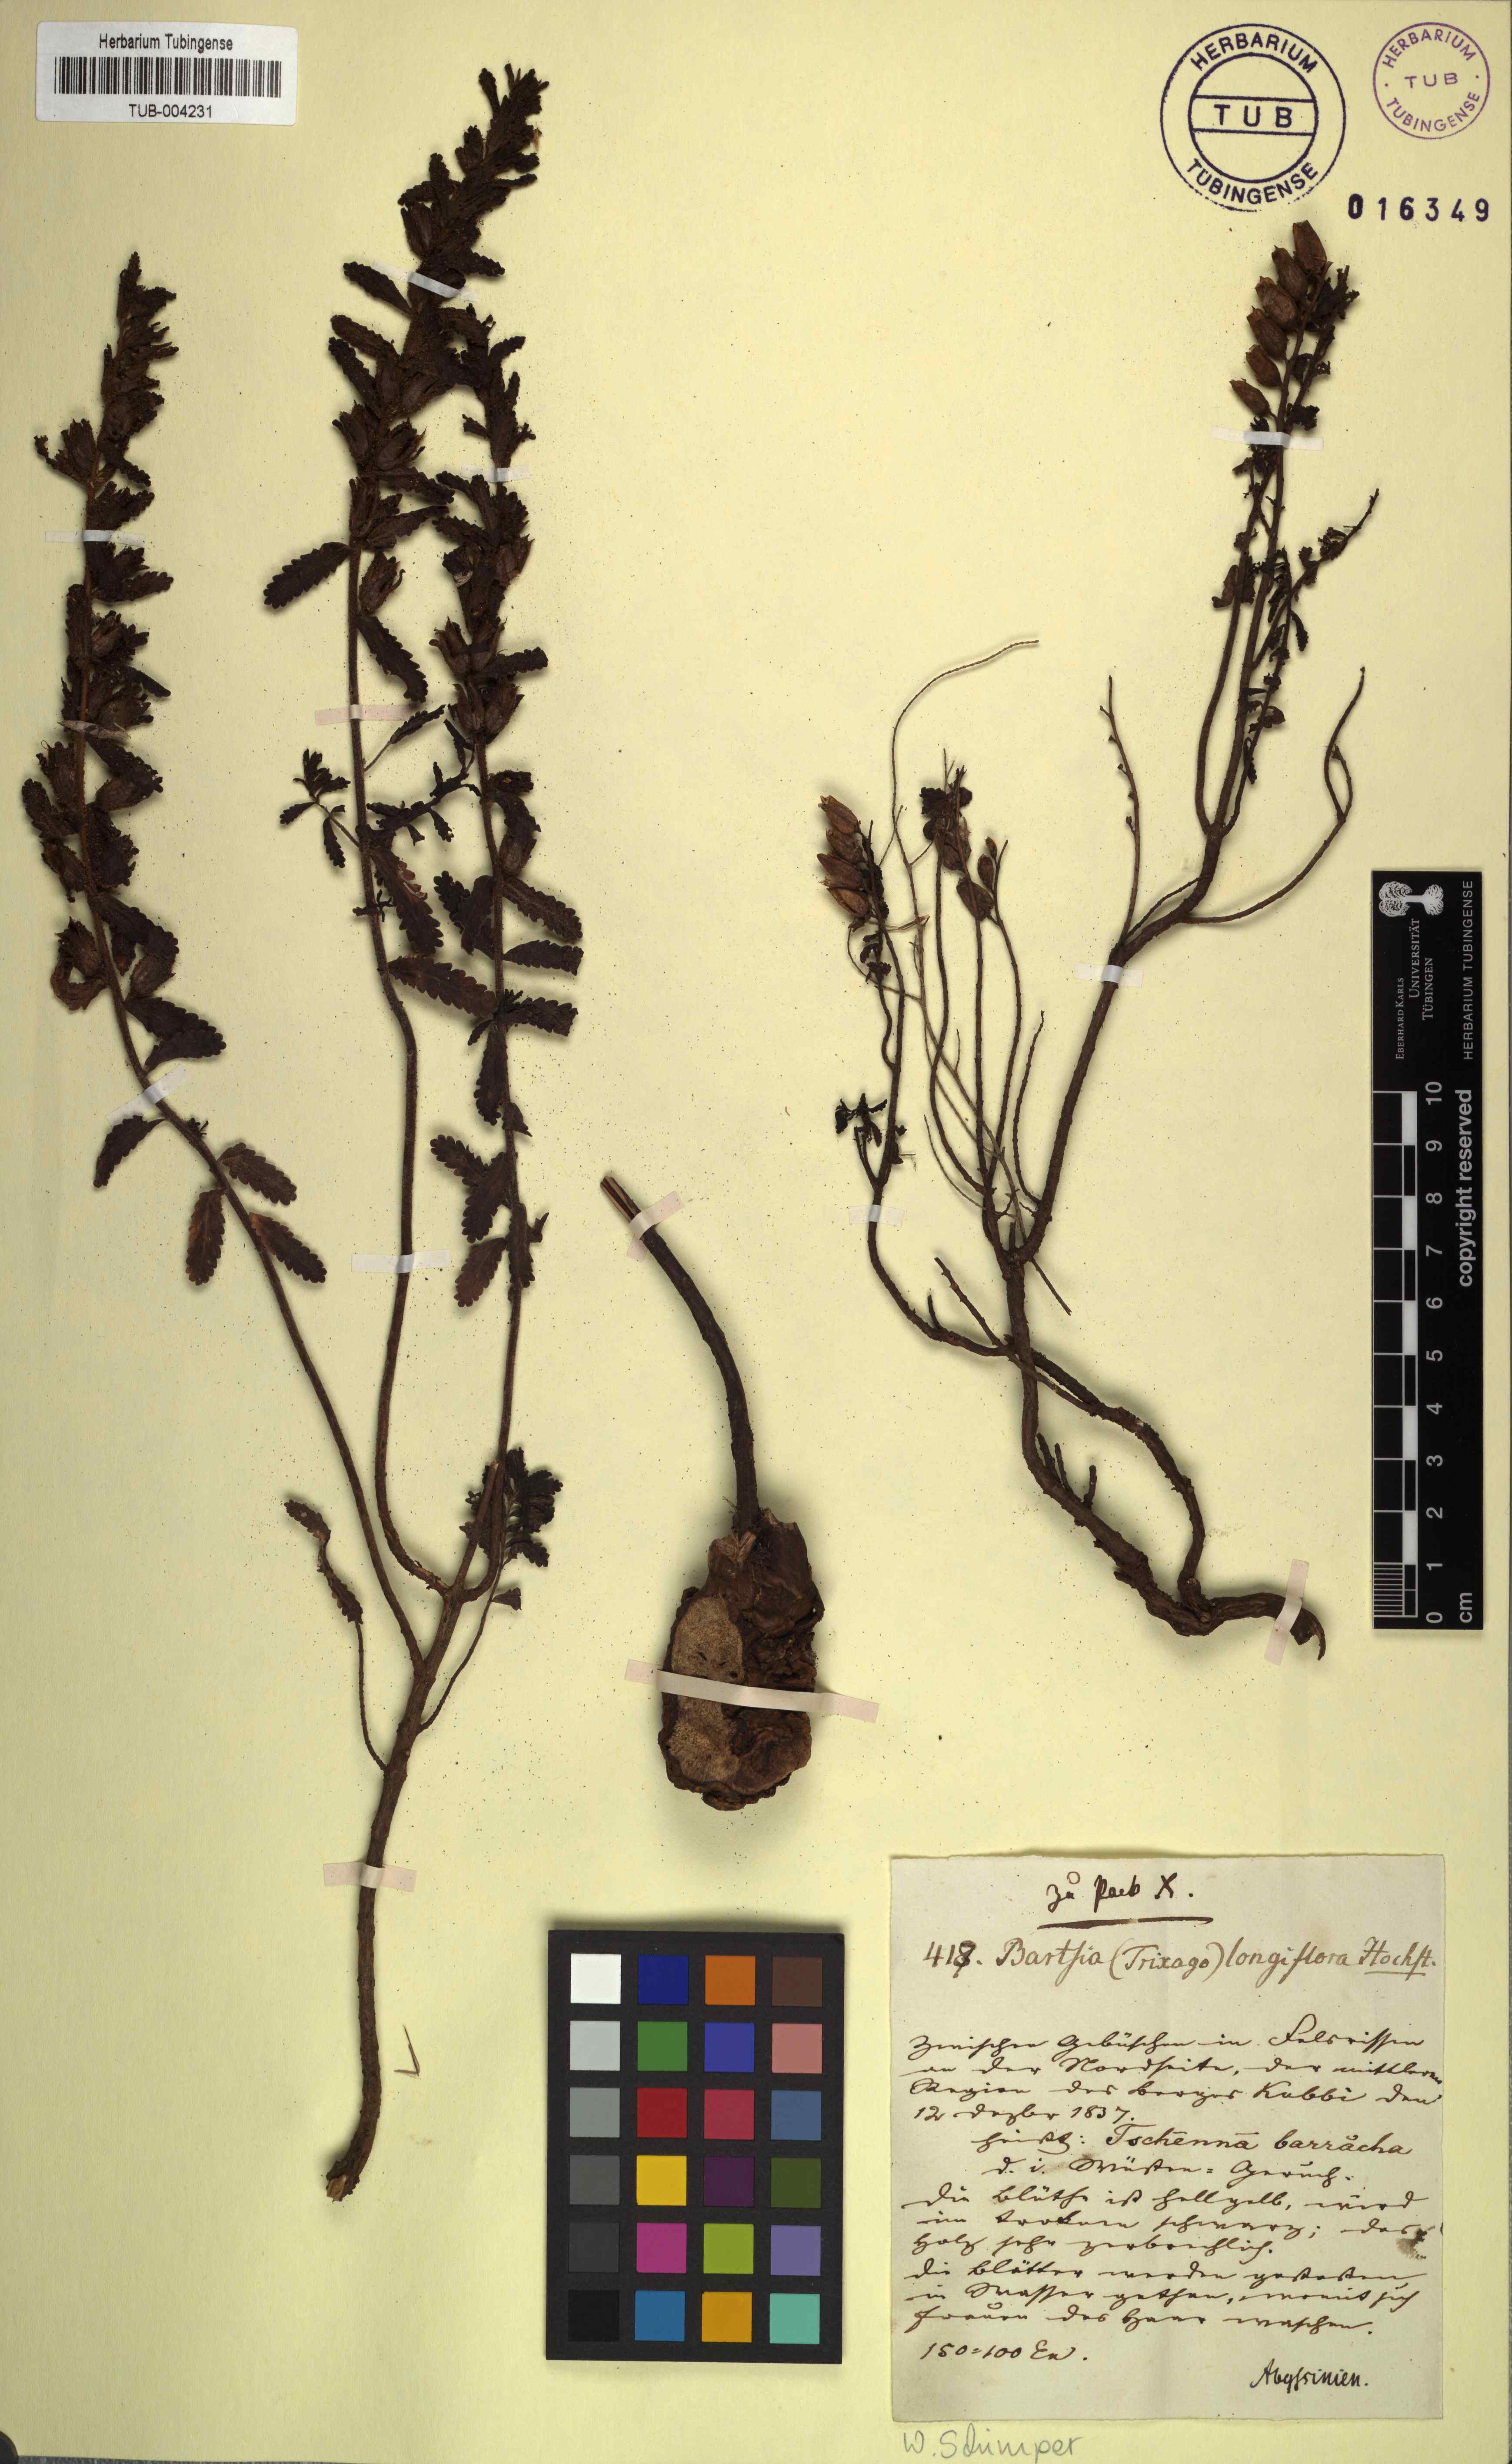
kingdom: Plantae
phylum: Tracheophyta
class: Magnoliopsida
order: Lamiales
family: Orobanchaceae
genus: Hedbergia
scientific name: Hedbergia longiflora
